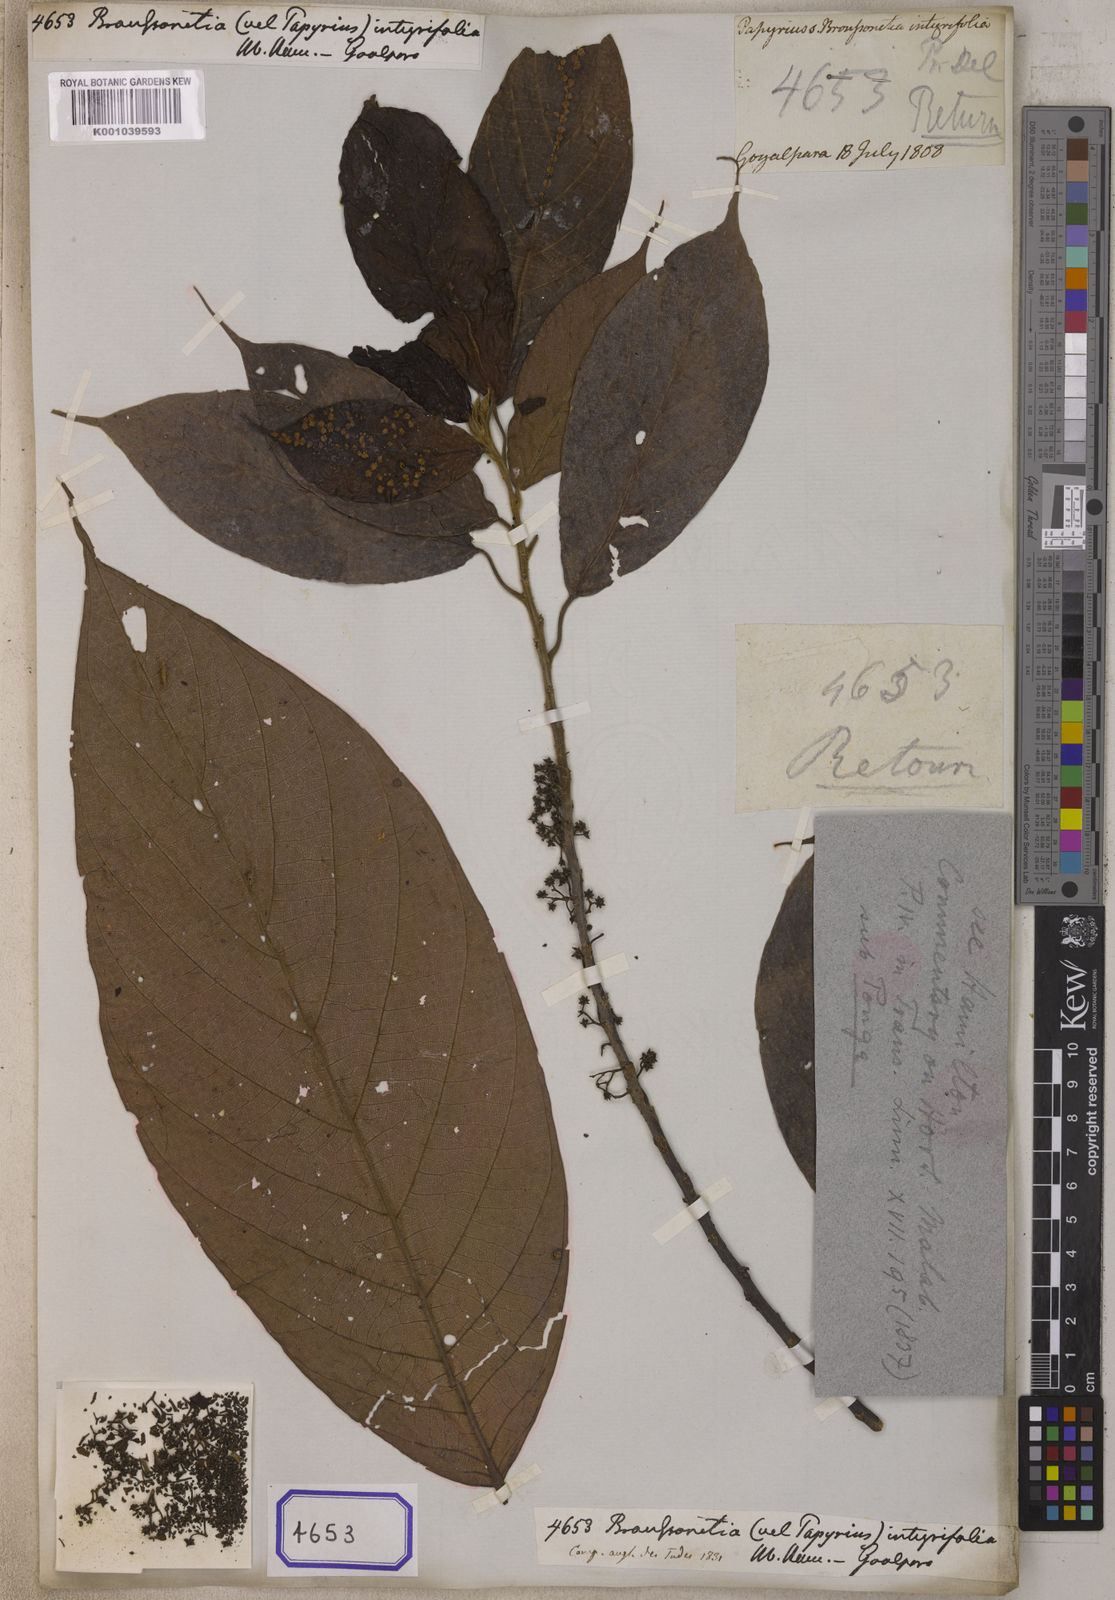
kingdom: Plantae
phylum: Tracheophyta
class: Magnoliopsida
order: Rosales
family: Moraceae
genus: Broussonetia
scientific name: Broussonetia
